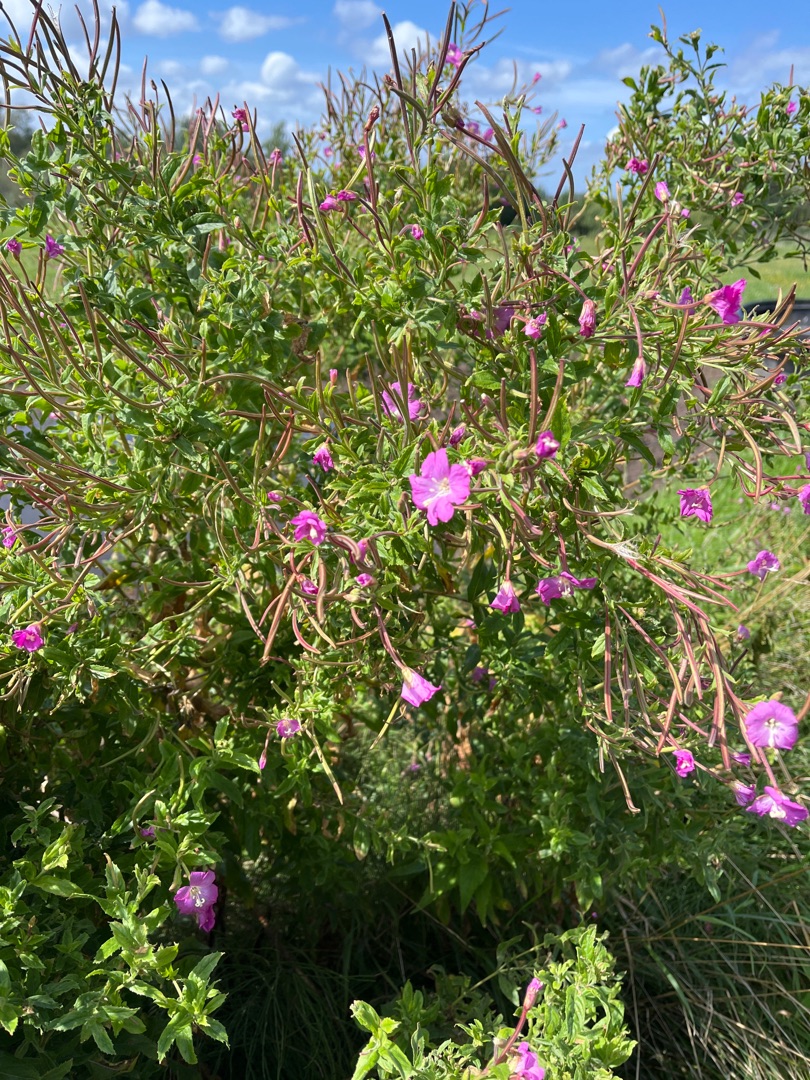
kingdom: Plantae
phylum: Tracheophyta
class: Magnoliopsida
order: Myrtales
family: Onagraceae
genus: Epilobium
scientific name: Epilobium hirsutum
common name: Lådden dueurt
